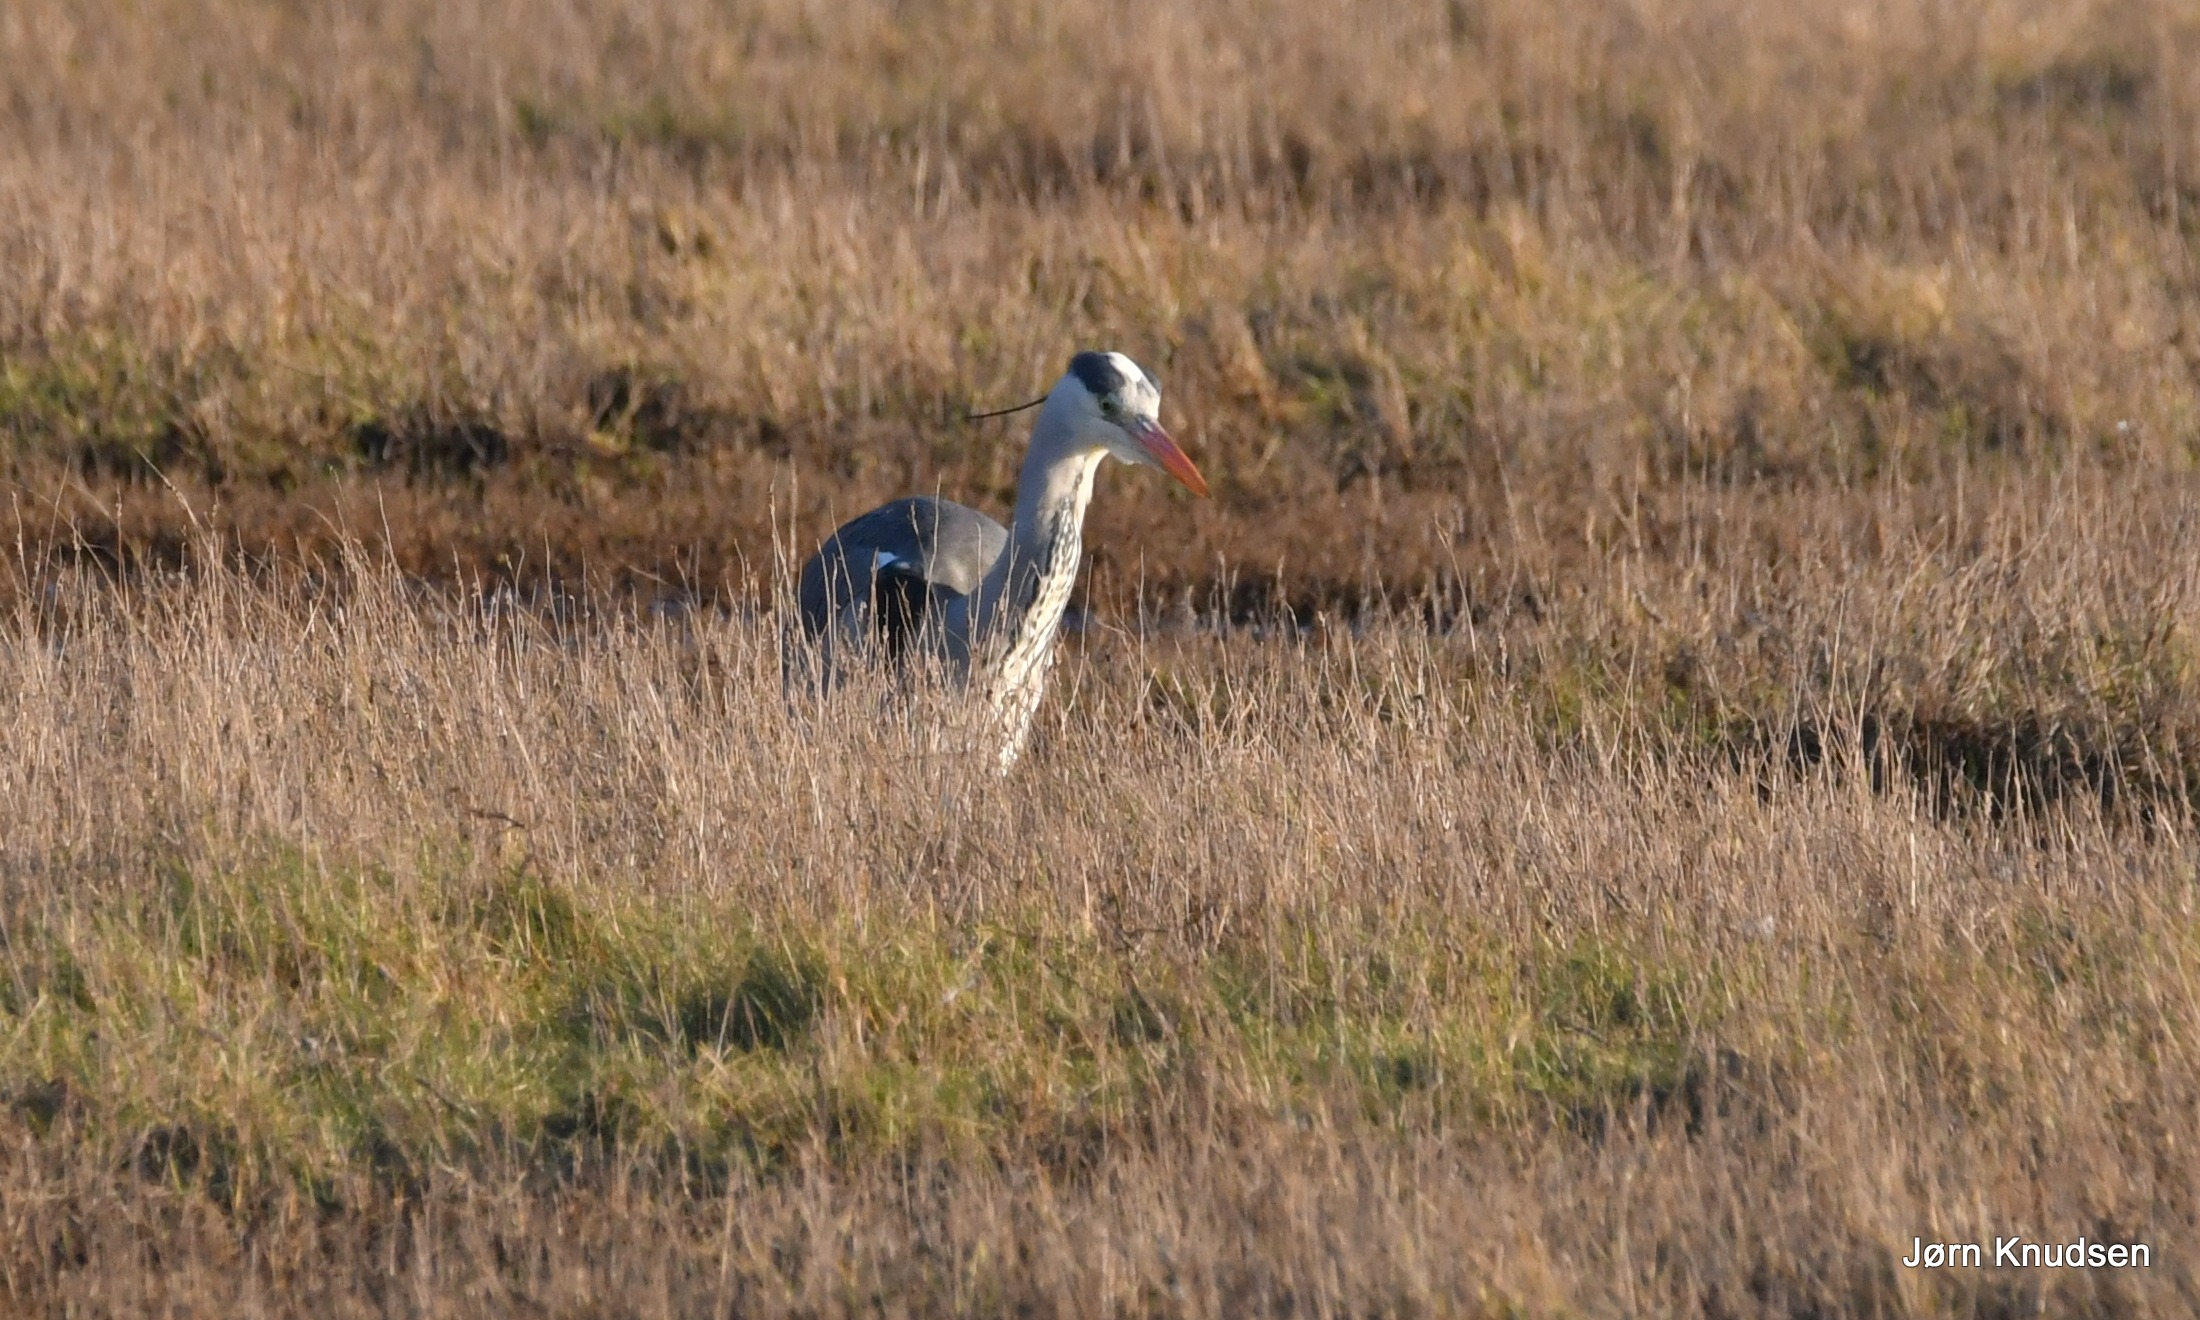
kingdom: Animalia
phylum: Chordata
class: Aves
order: Pelecaniformes
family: Ardeidae
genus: Ardea
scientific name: Ardea cinerea
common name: Fiskehejre
